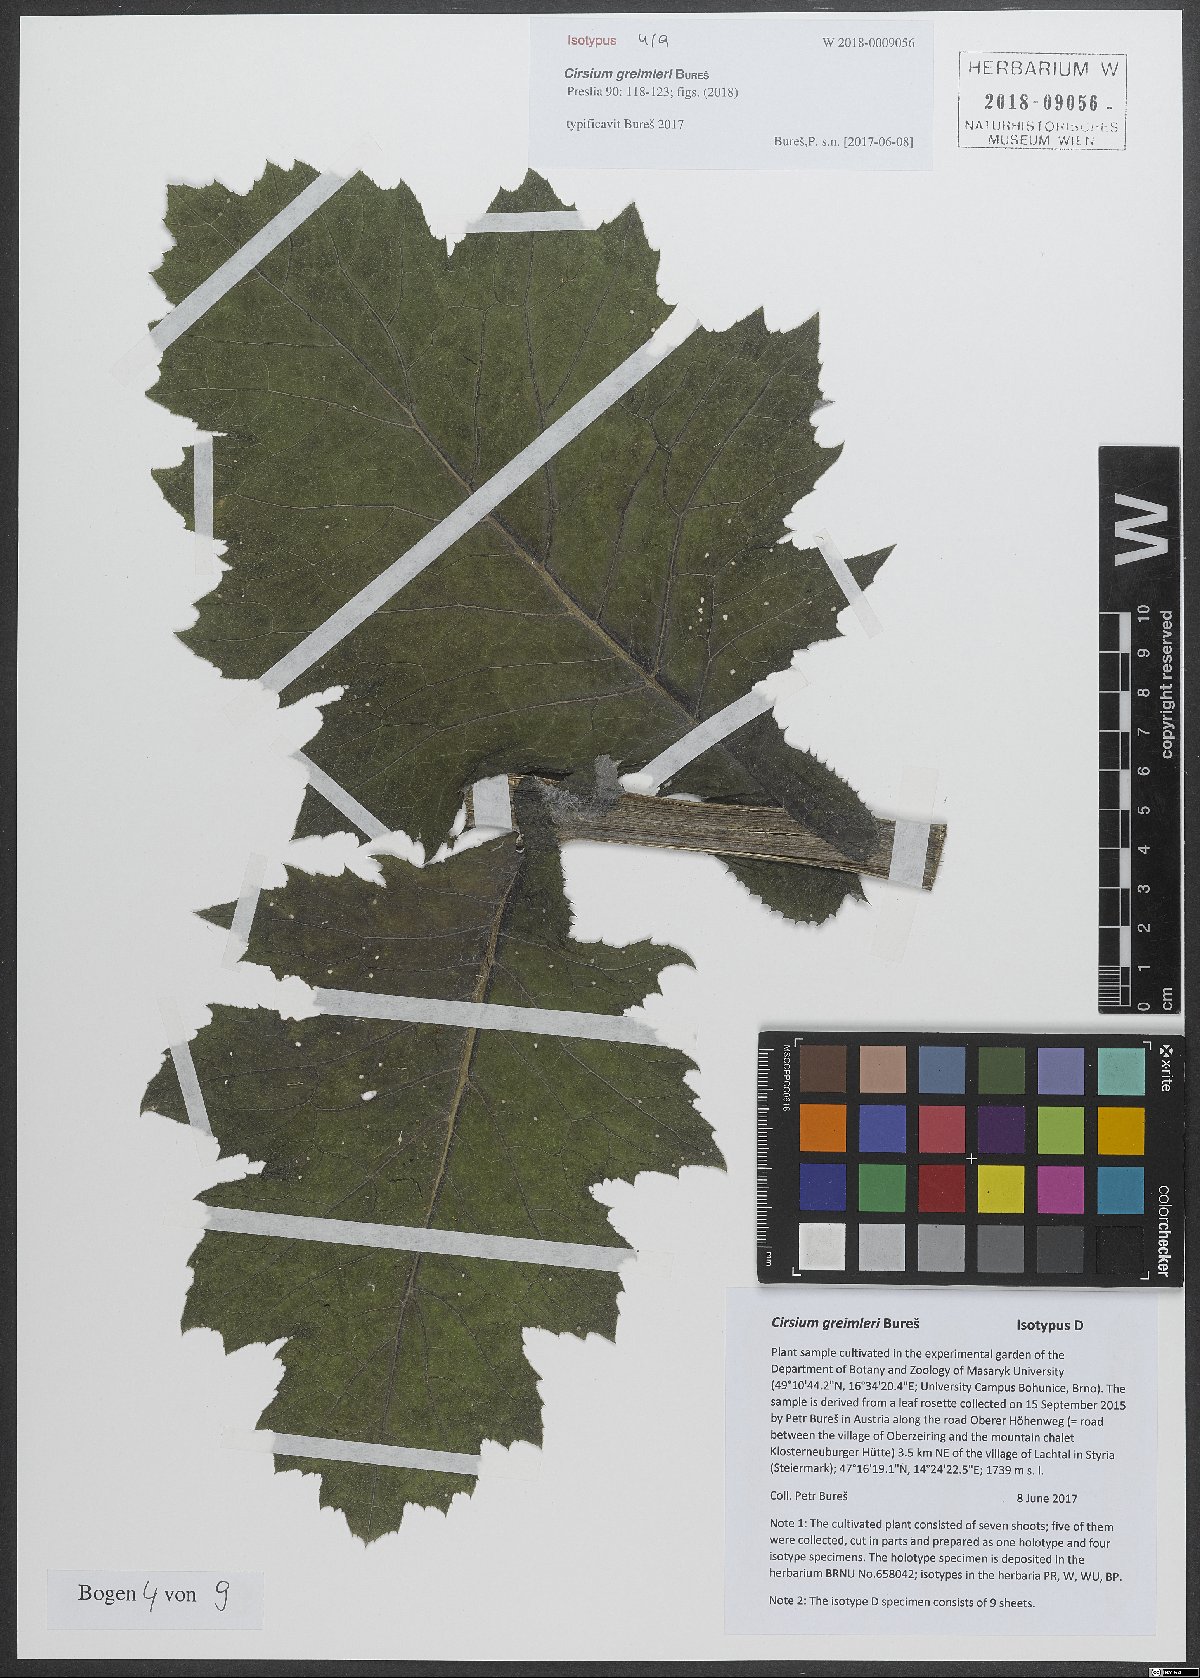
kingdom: Plantae
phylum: Tracheophyta
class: Magnoliopsida
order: Asterales
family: Asteraceae
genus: Cirsium
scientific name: Cirsium greimleri
